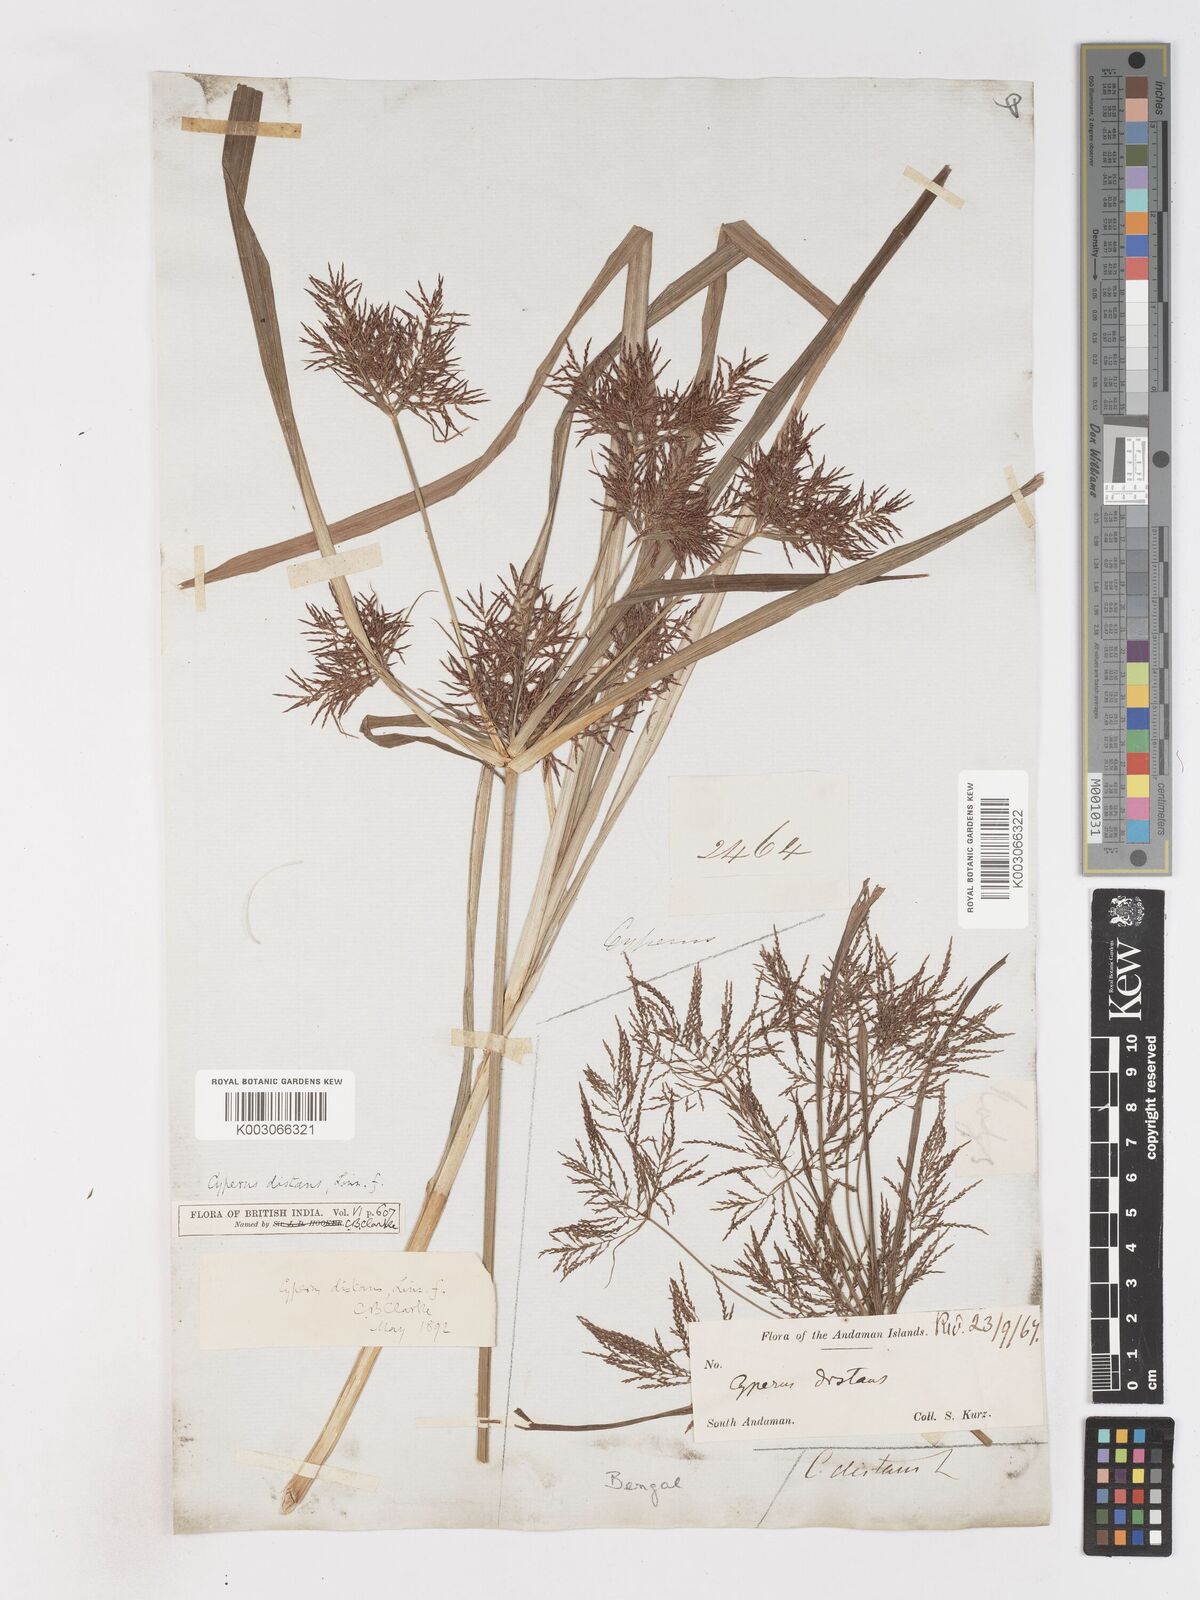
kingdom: Plantae
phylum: Tracheophyta
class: Liliopsida
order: Poales
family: Cyperaceae
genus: Cyperus
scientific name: Cyperus distans
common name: Slender cyperus
